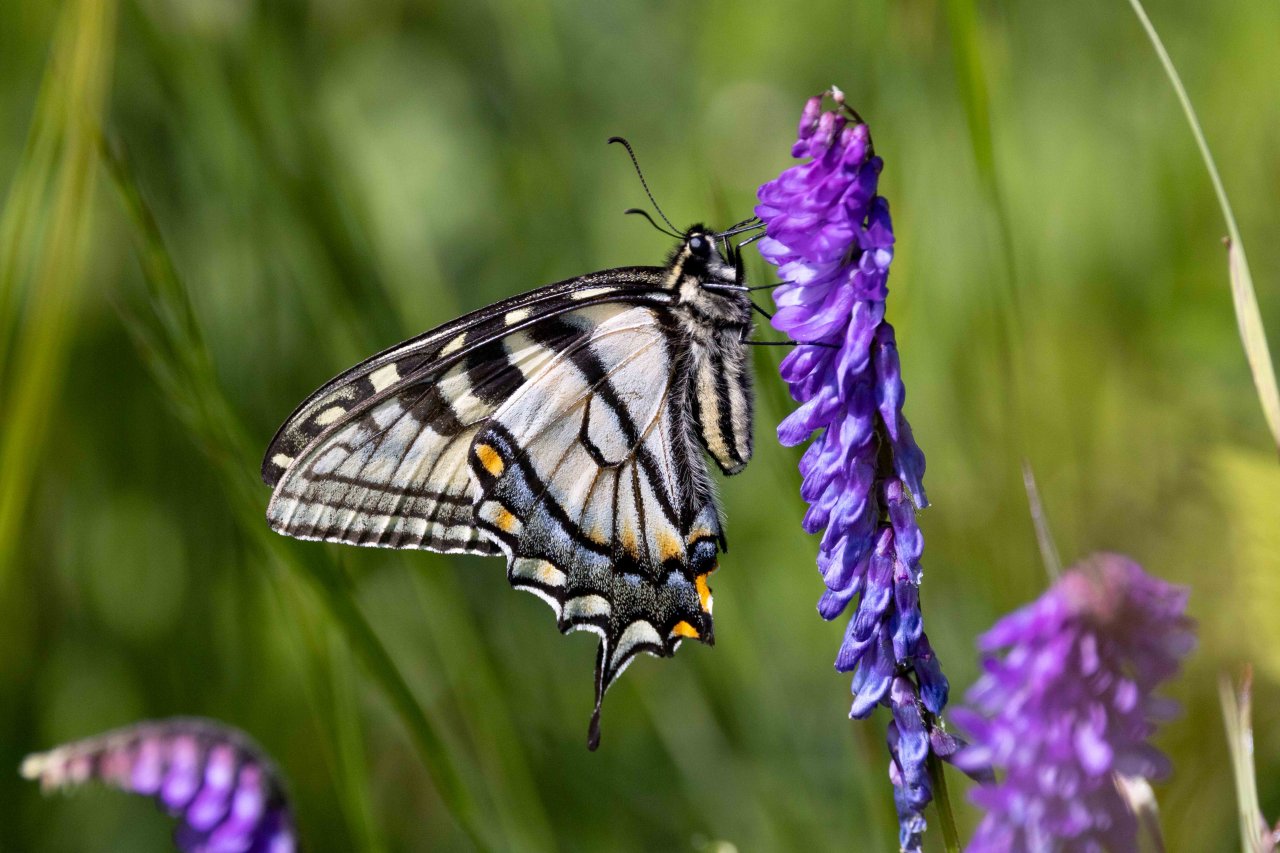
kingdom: Animalia
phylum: Arthropoda
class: Insecta
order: Lepidoptera
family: Papilionidae
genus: Pterourus
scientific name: Pterourus canadensis
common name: Canadian Tiger Swallowtail
